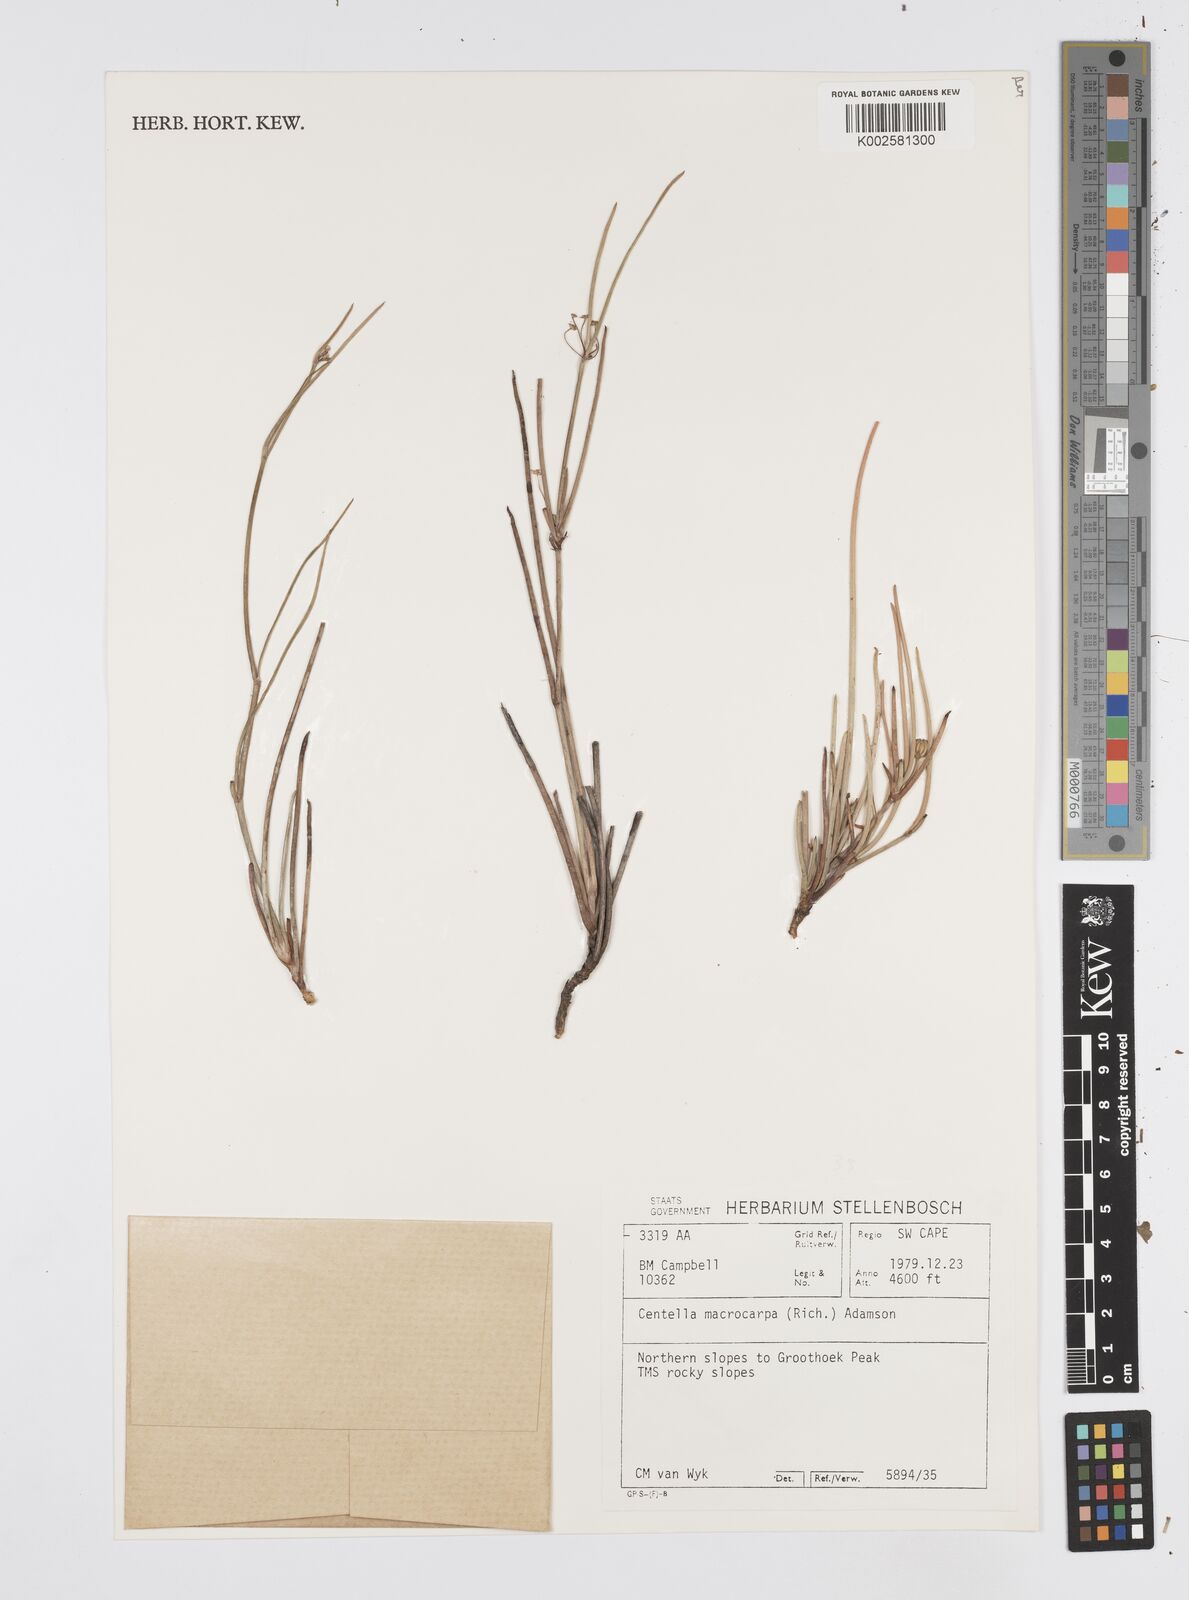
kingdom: Plantae
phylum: Tracheophyta
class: Magnoliopsida
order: Apiales
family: Apiaceae
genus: Centella
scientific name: Centella macrocarpa
